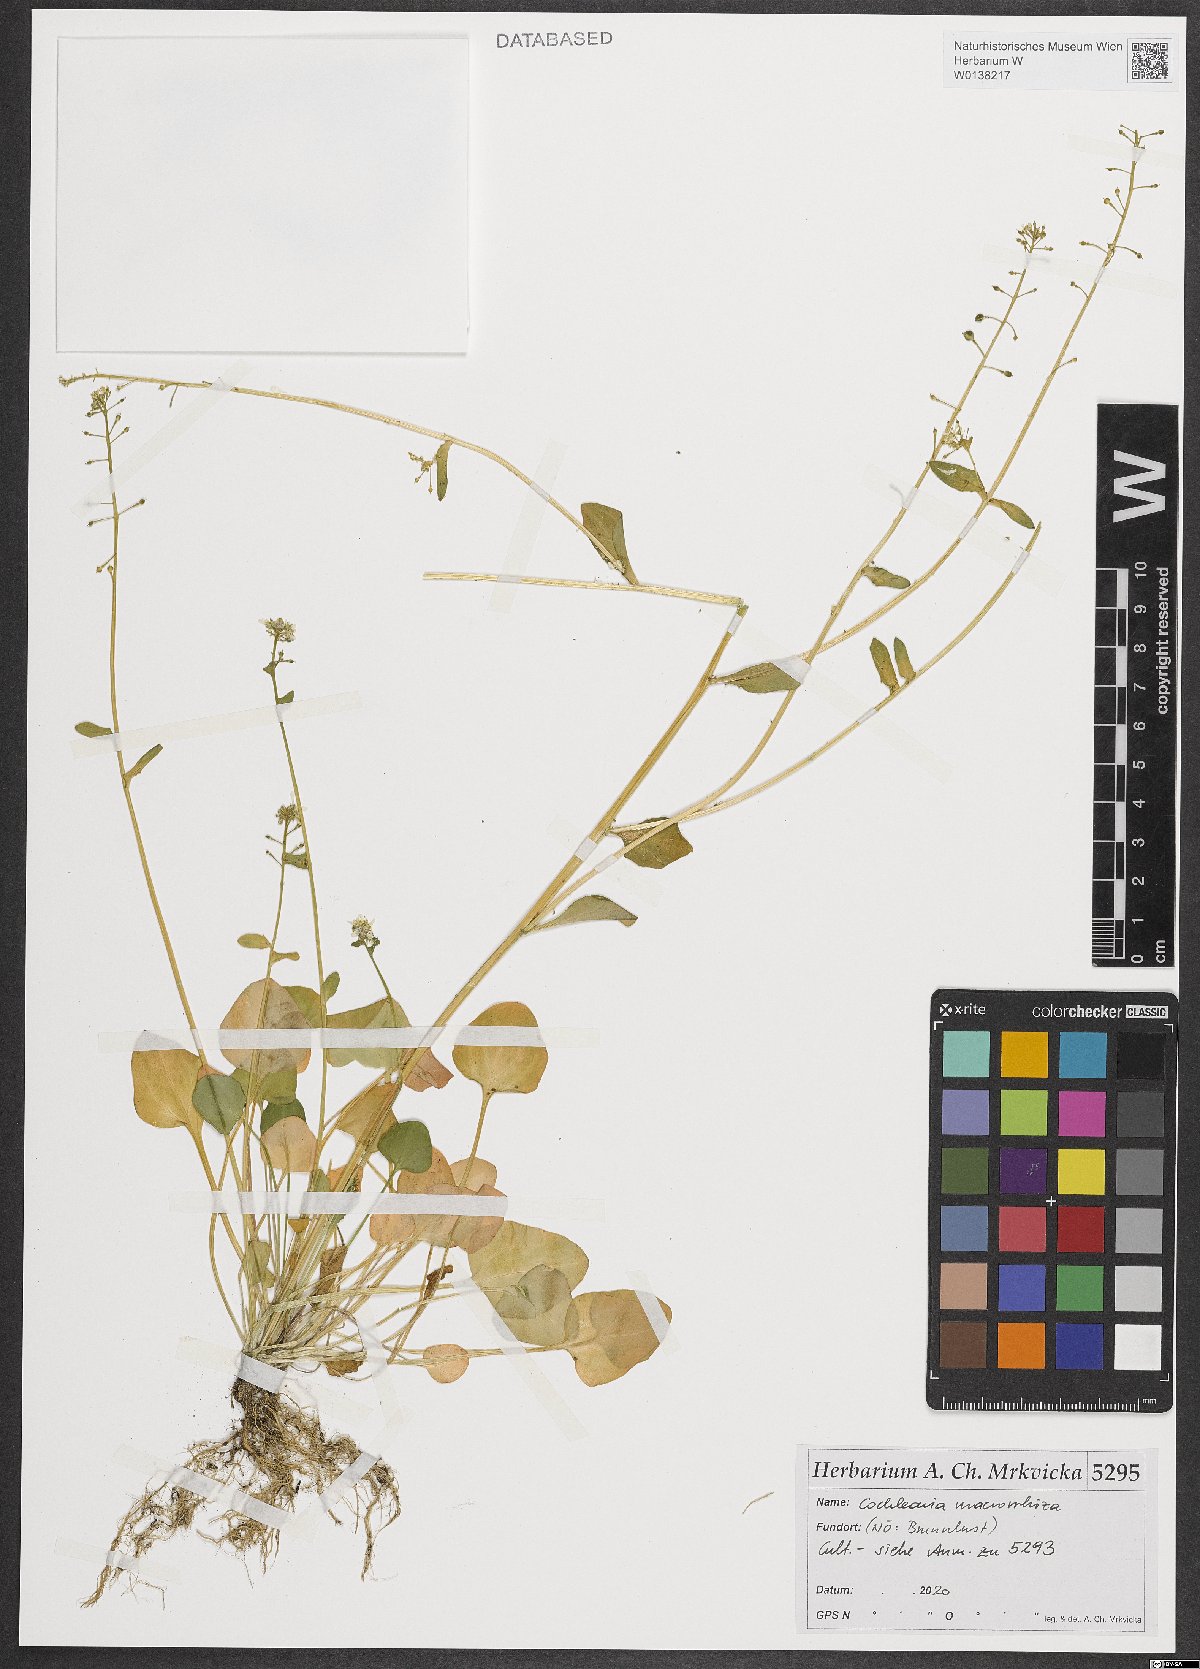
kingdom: Plantae
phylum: Tracheophyta
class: Magnoliopsida
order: Brassicales
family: Brassicaceae
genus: Cochlearia
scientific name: Cochlearia pyrenaica
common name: Upland scurvy-grass
